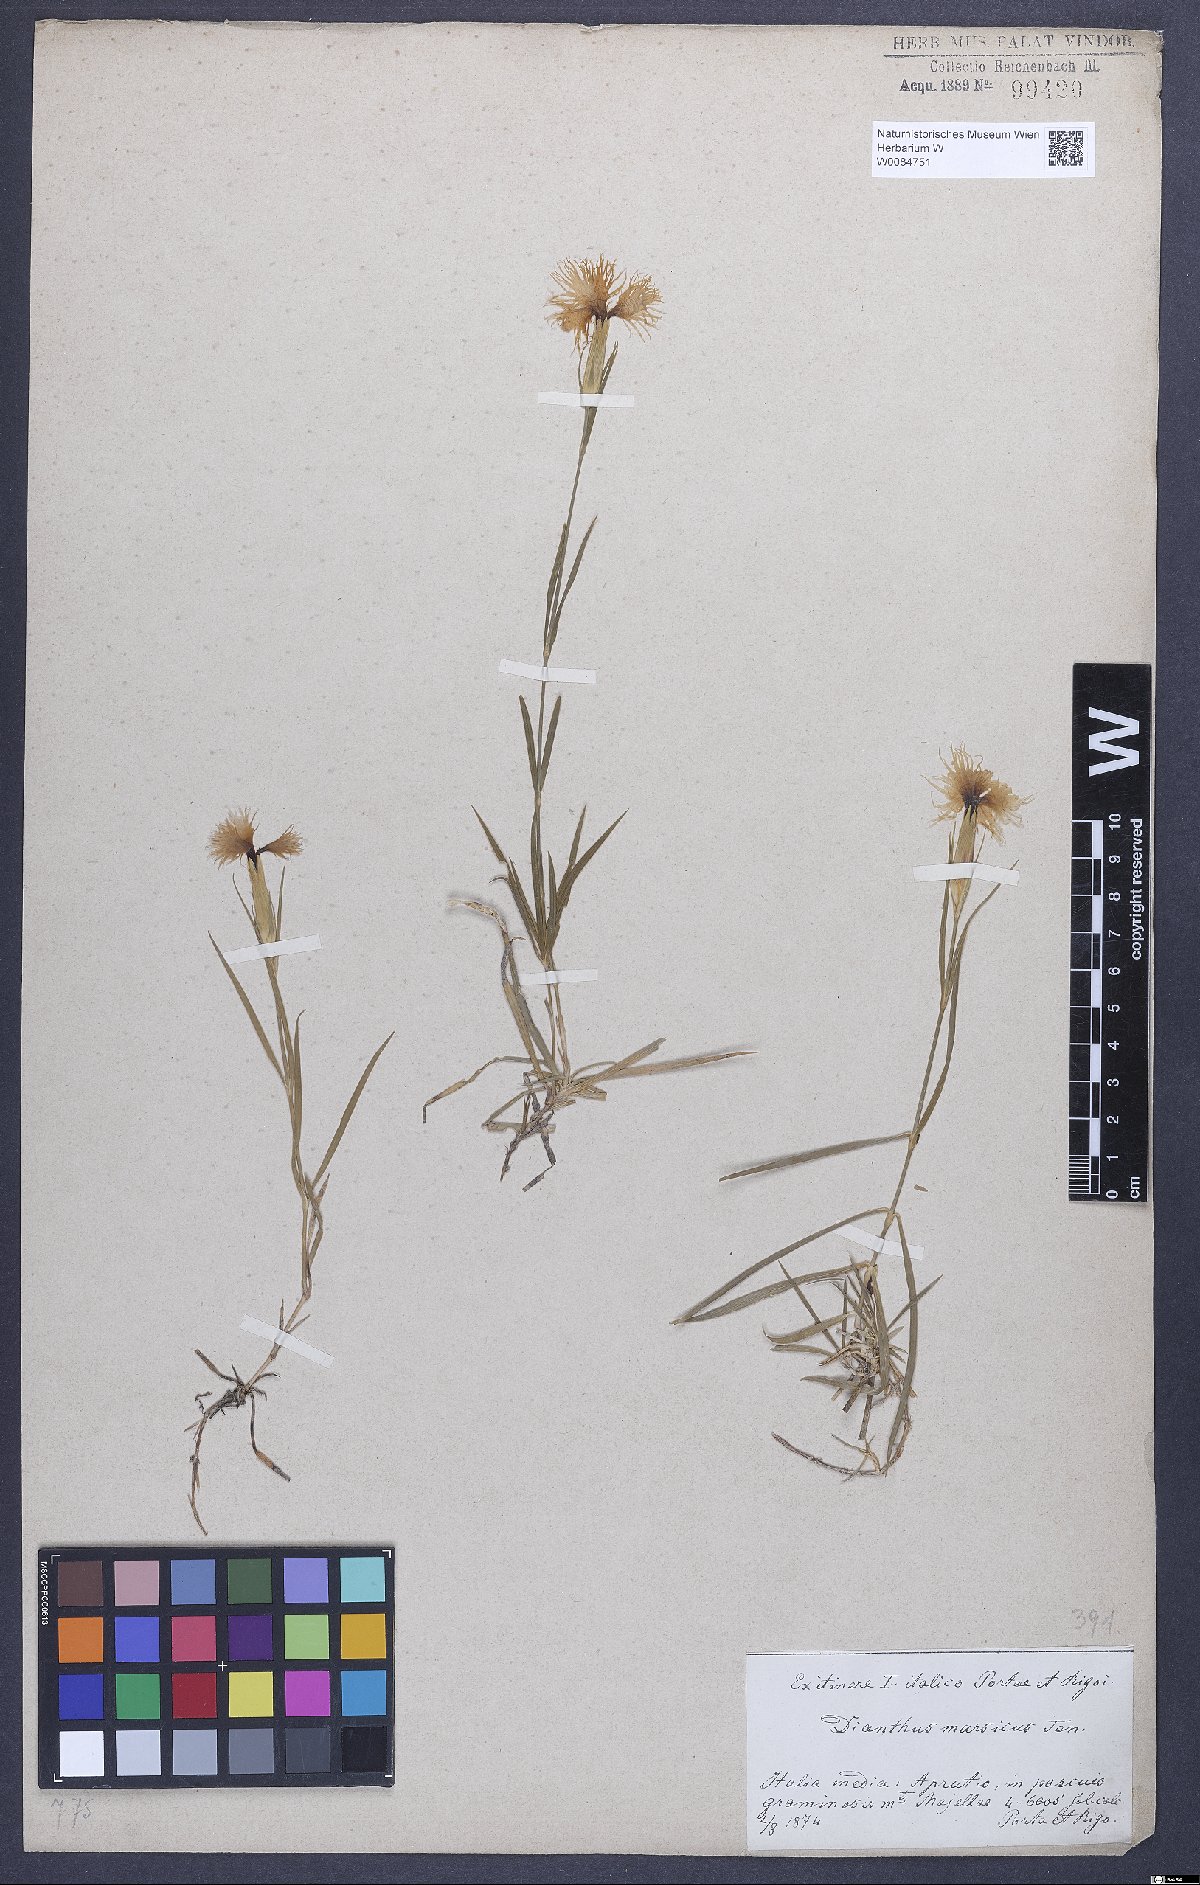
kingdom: Plantae
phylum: Tracheophyta
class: Magnoliopsida
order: Caryophyllales
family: Caryophyllaceae
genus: Dianthus
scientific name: Dianthus hyssopifolius
